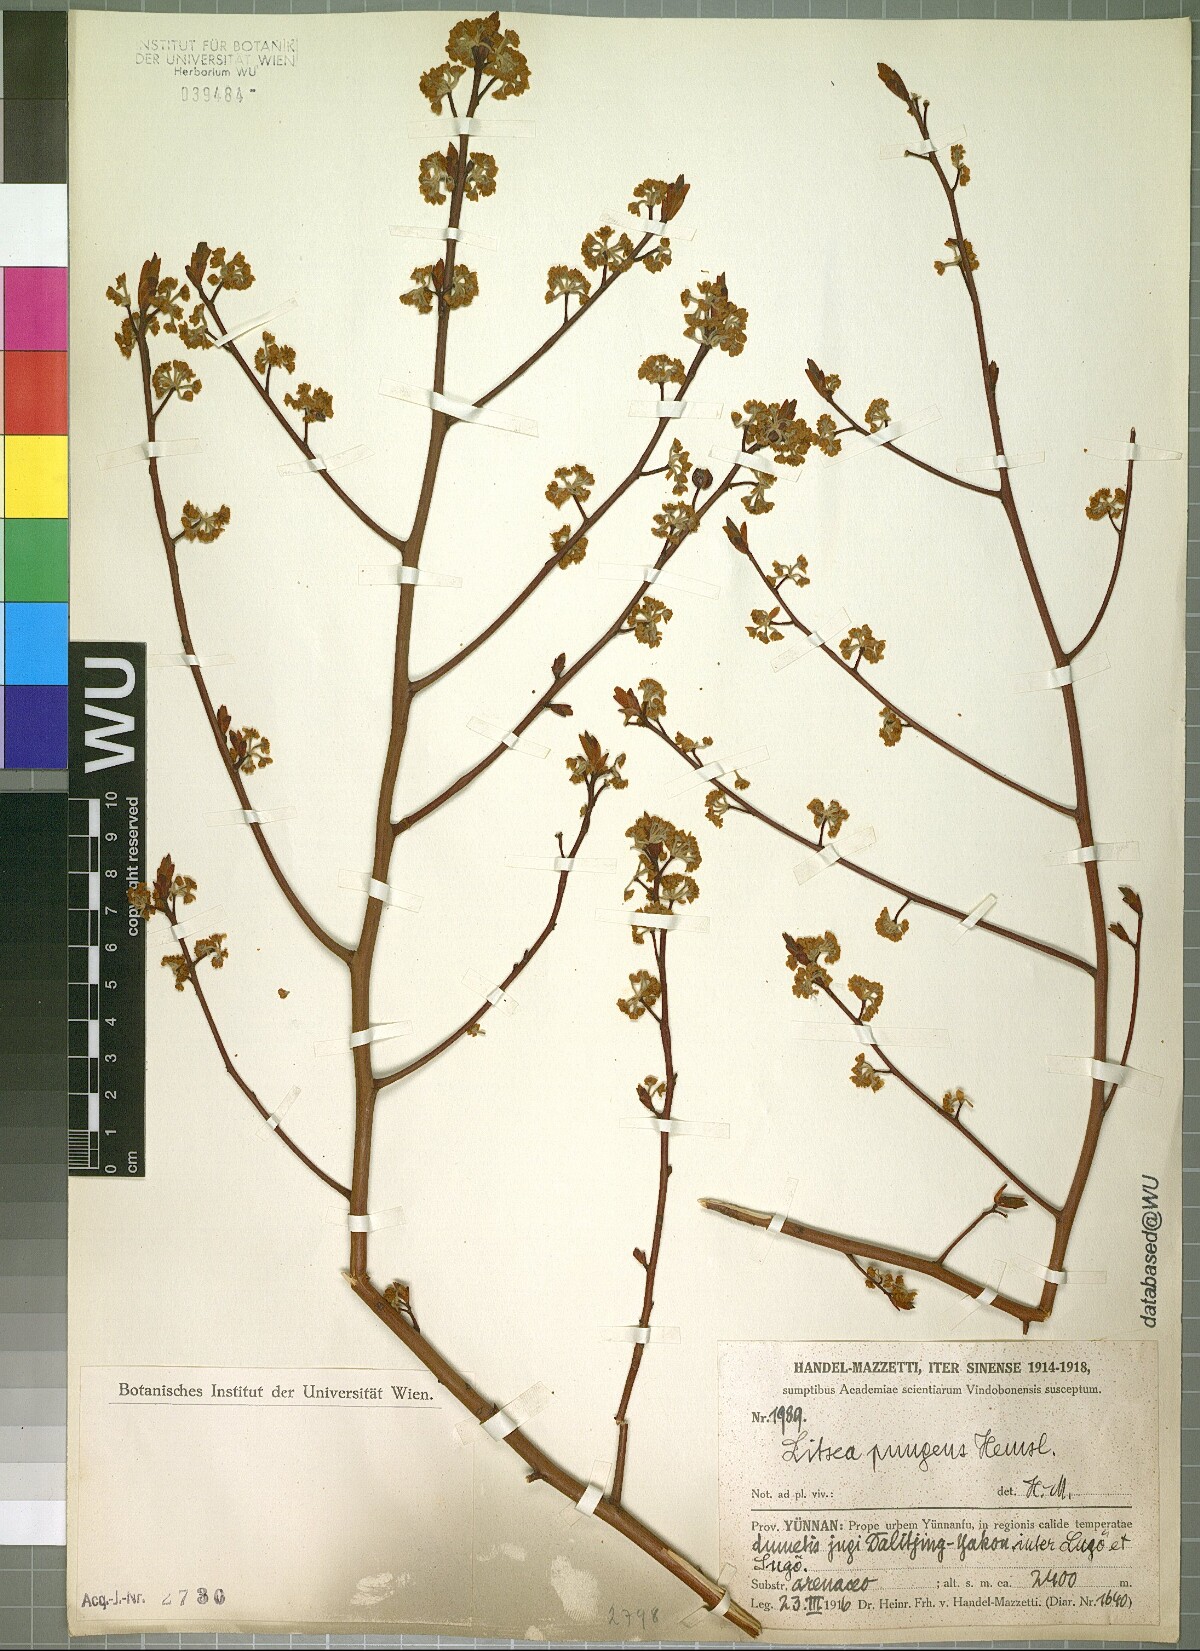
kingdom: Plantae
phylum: Tracheophyta
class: Magnoliopsida
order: Laurales
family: Lauraceae
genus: Litsea
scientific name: Litsea pungens
